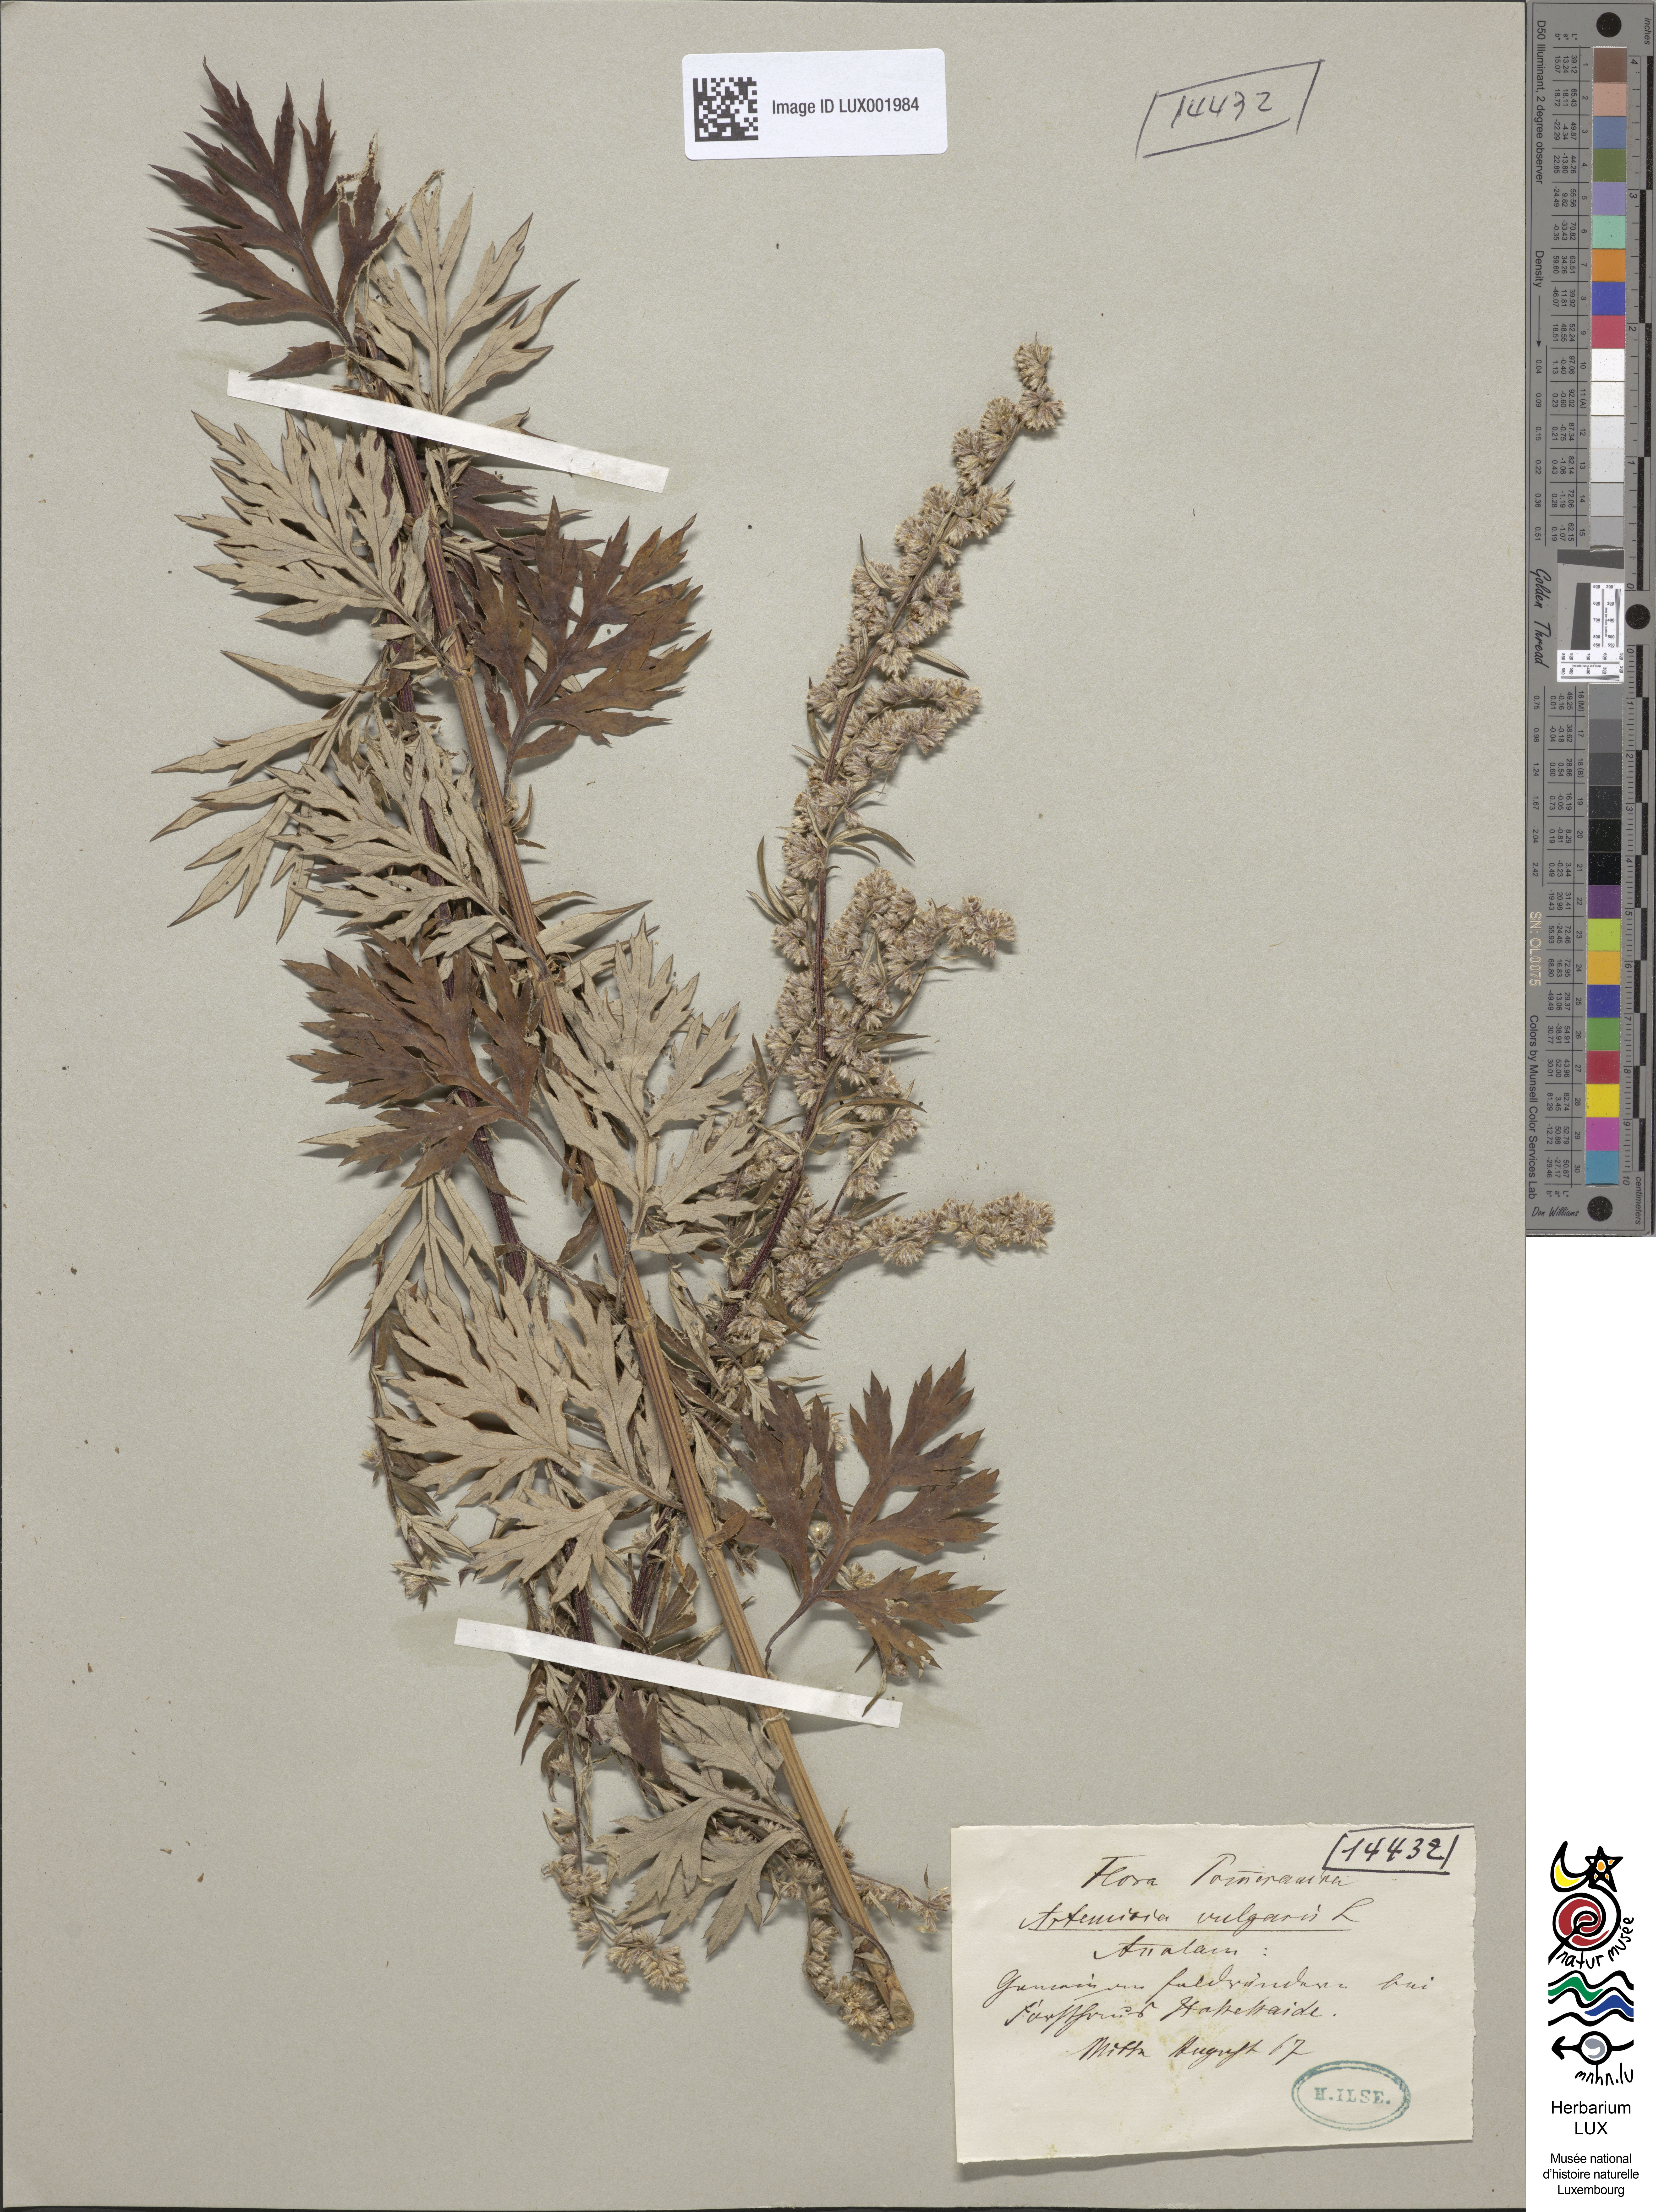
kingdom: Plantae
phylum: Tracheophyta
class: Magnoliopsida
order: Asterales
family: Asteraceae
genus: Artemisia
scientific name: Artemisia vulgaris
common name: Mugwort
